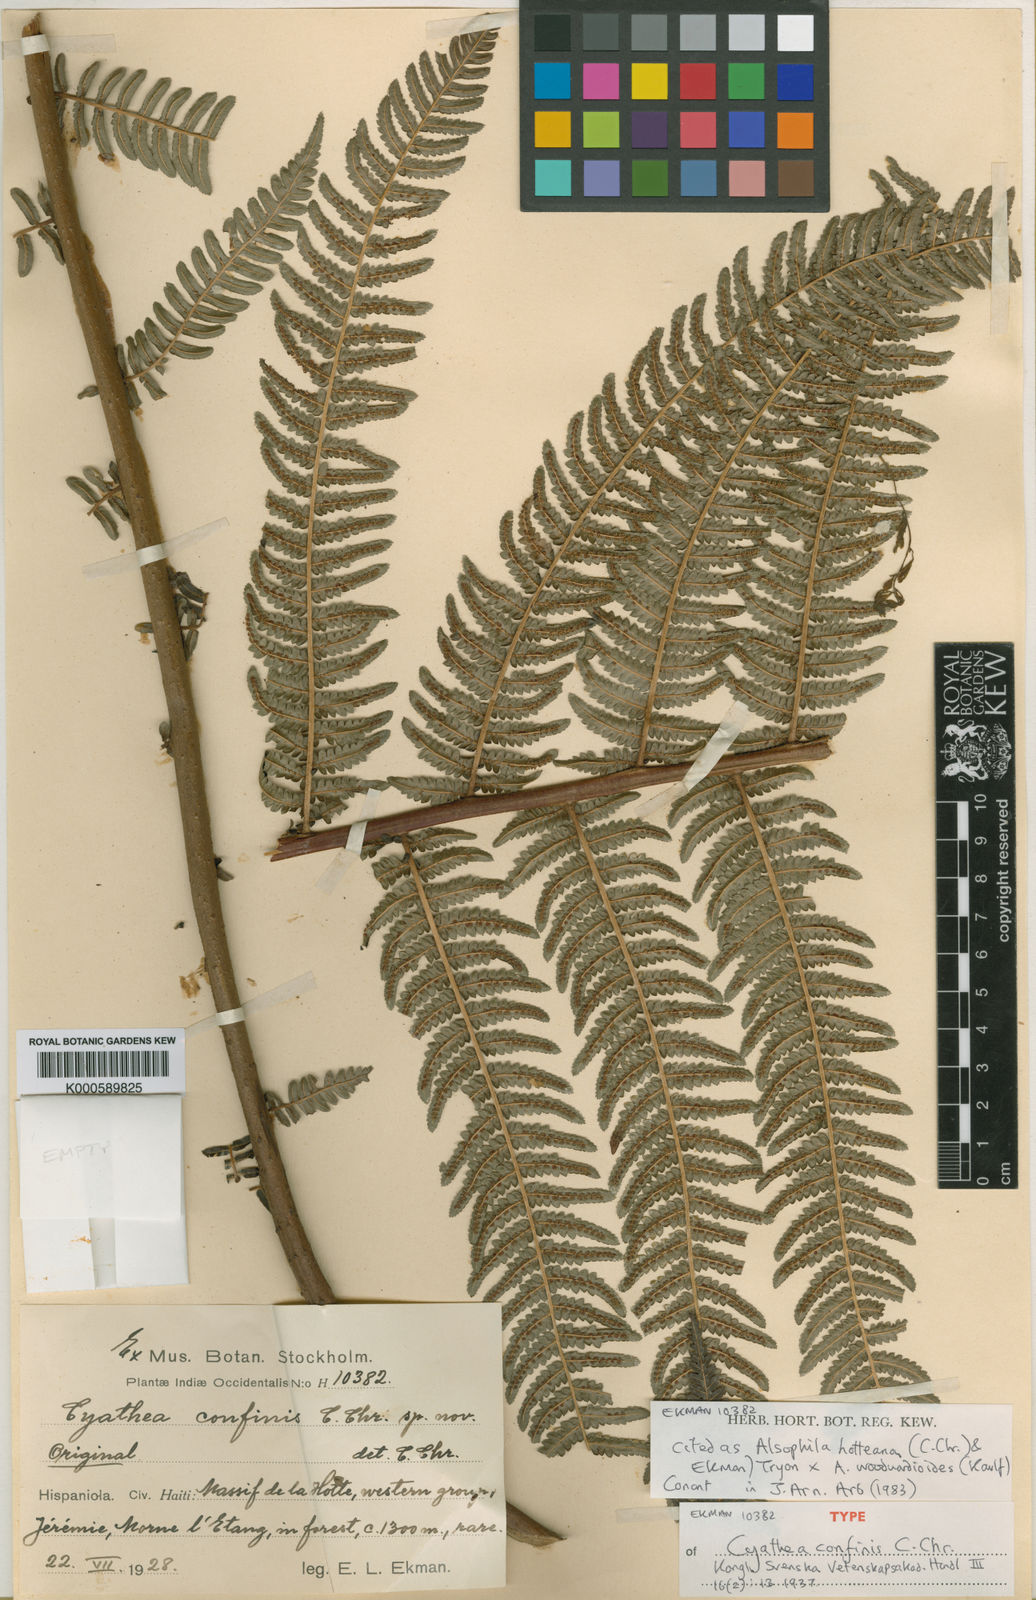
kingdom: Plantae
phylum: Tracheophyta
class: Polypodiopsida
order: Cyatheales
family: Cyatheaceae
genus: Alsophila
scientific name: Alsophila hotteana
